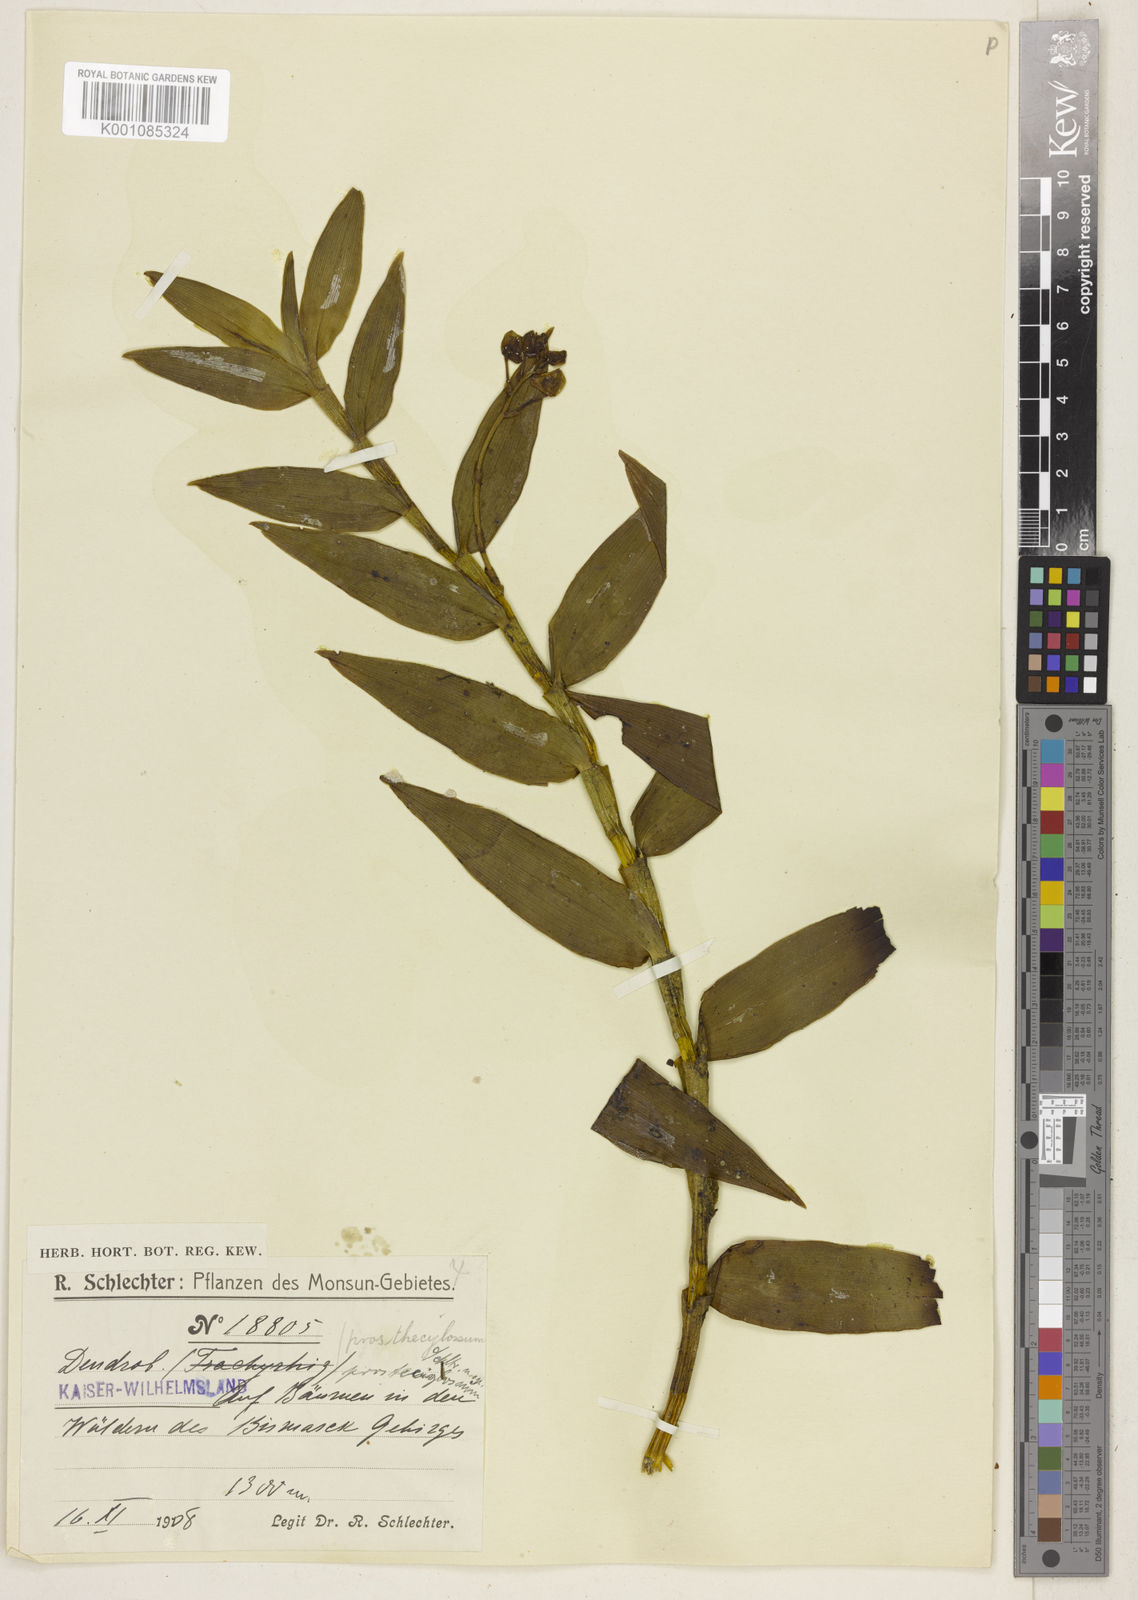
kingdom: Plantae
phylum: Tracheophyta
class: Liliopsida
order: Asparagales
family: Orchidaceae
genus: Dendrobium
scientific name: Dendrobium prostheciglossum
